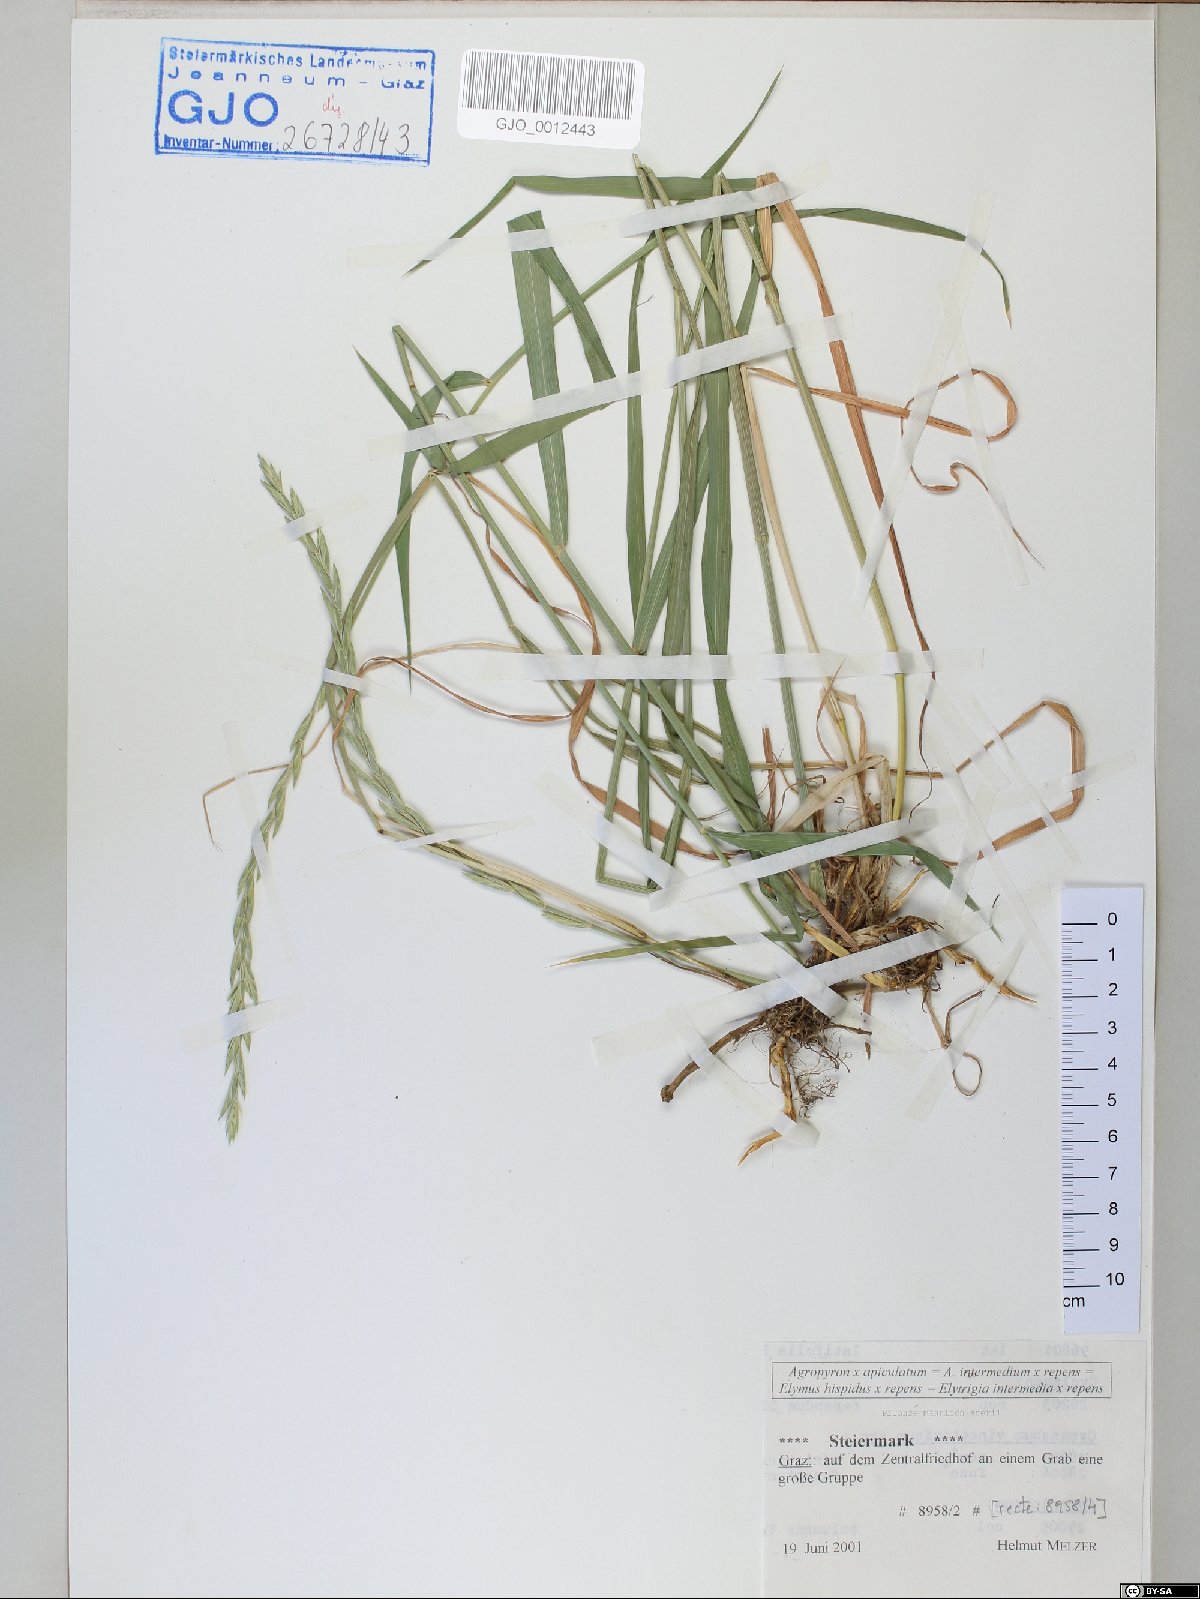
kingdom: Plantae
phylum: Tracheophyta
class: Liliopsida
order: Poales
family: Poaceae
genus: Elymus
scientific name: Elymus apiculatus
